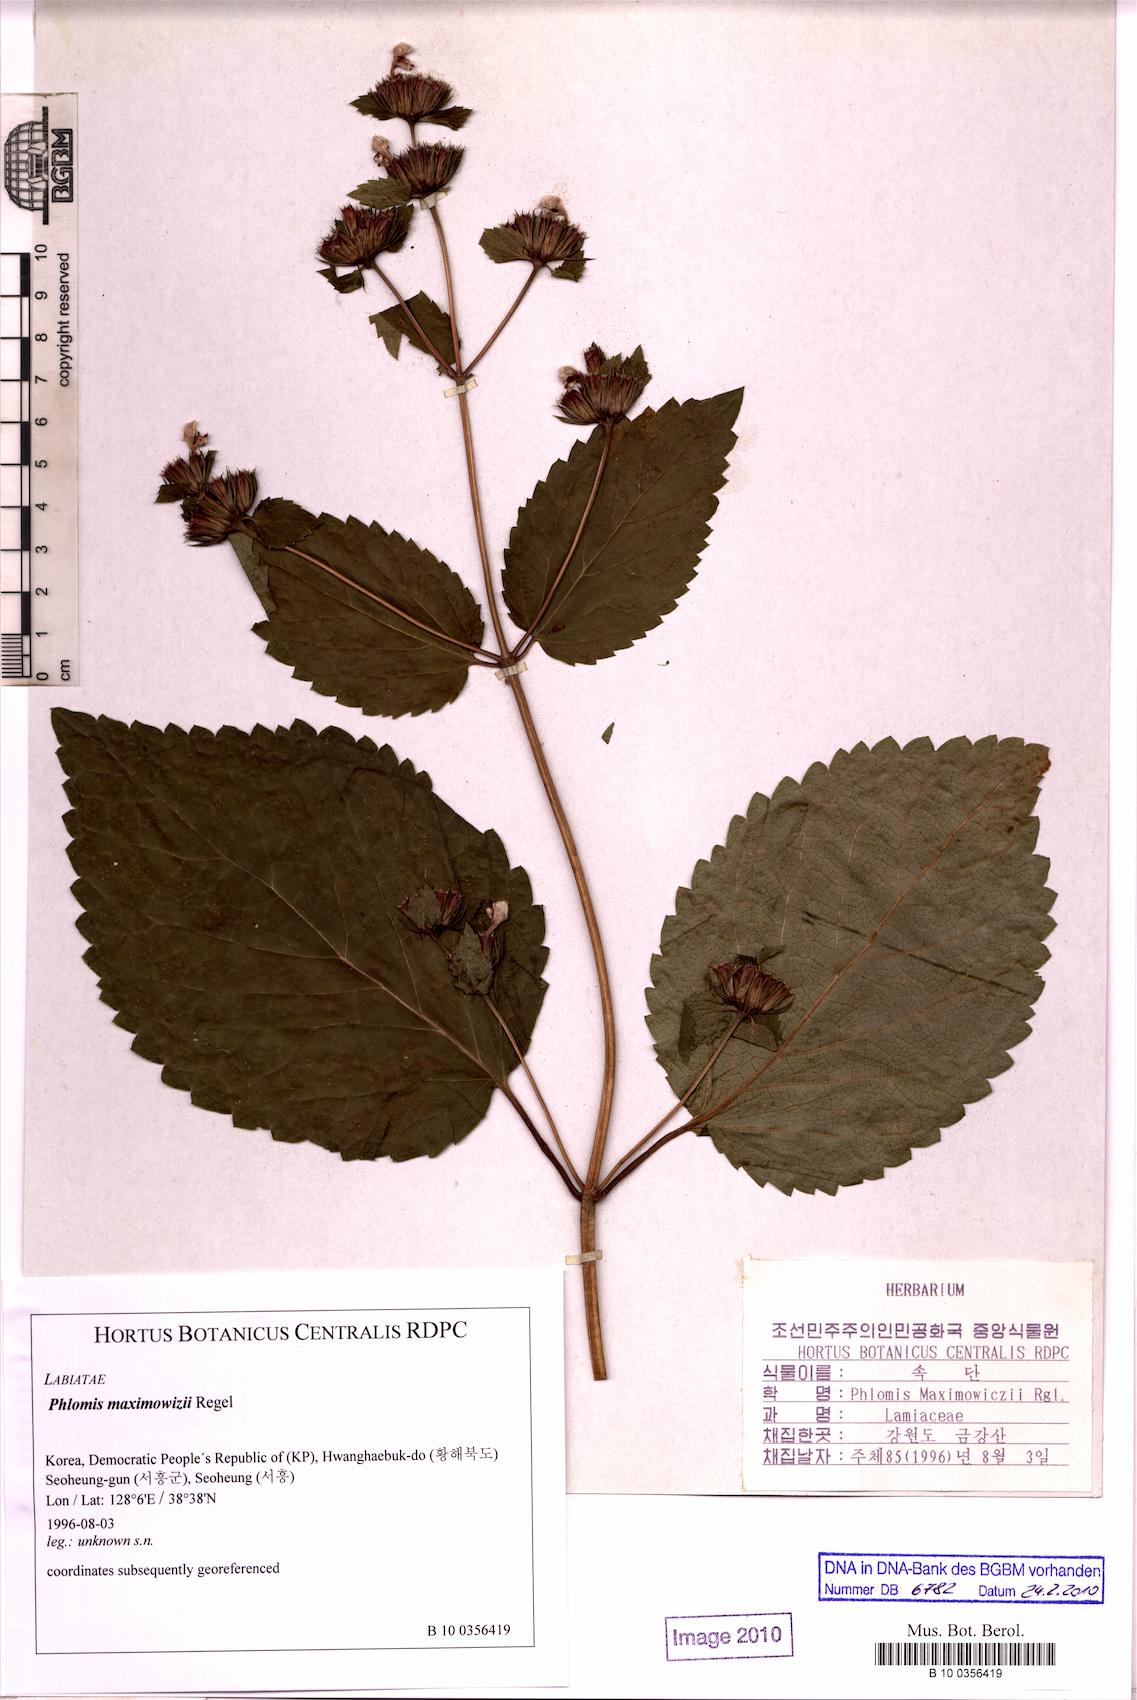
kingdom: Plantae
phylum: Tracheophyta
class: Magnoliopsida
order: Lamiales
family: Lamiaceae
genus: Phlomis
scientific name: Phlomis maximowizii
